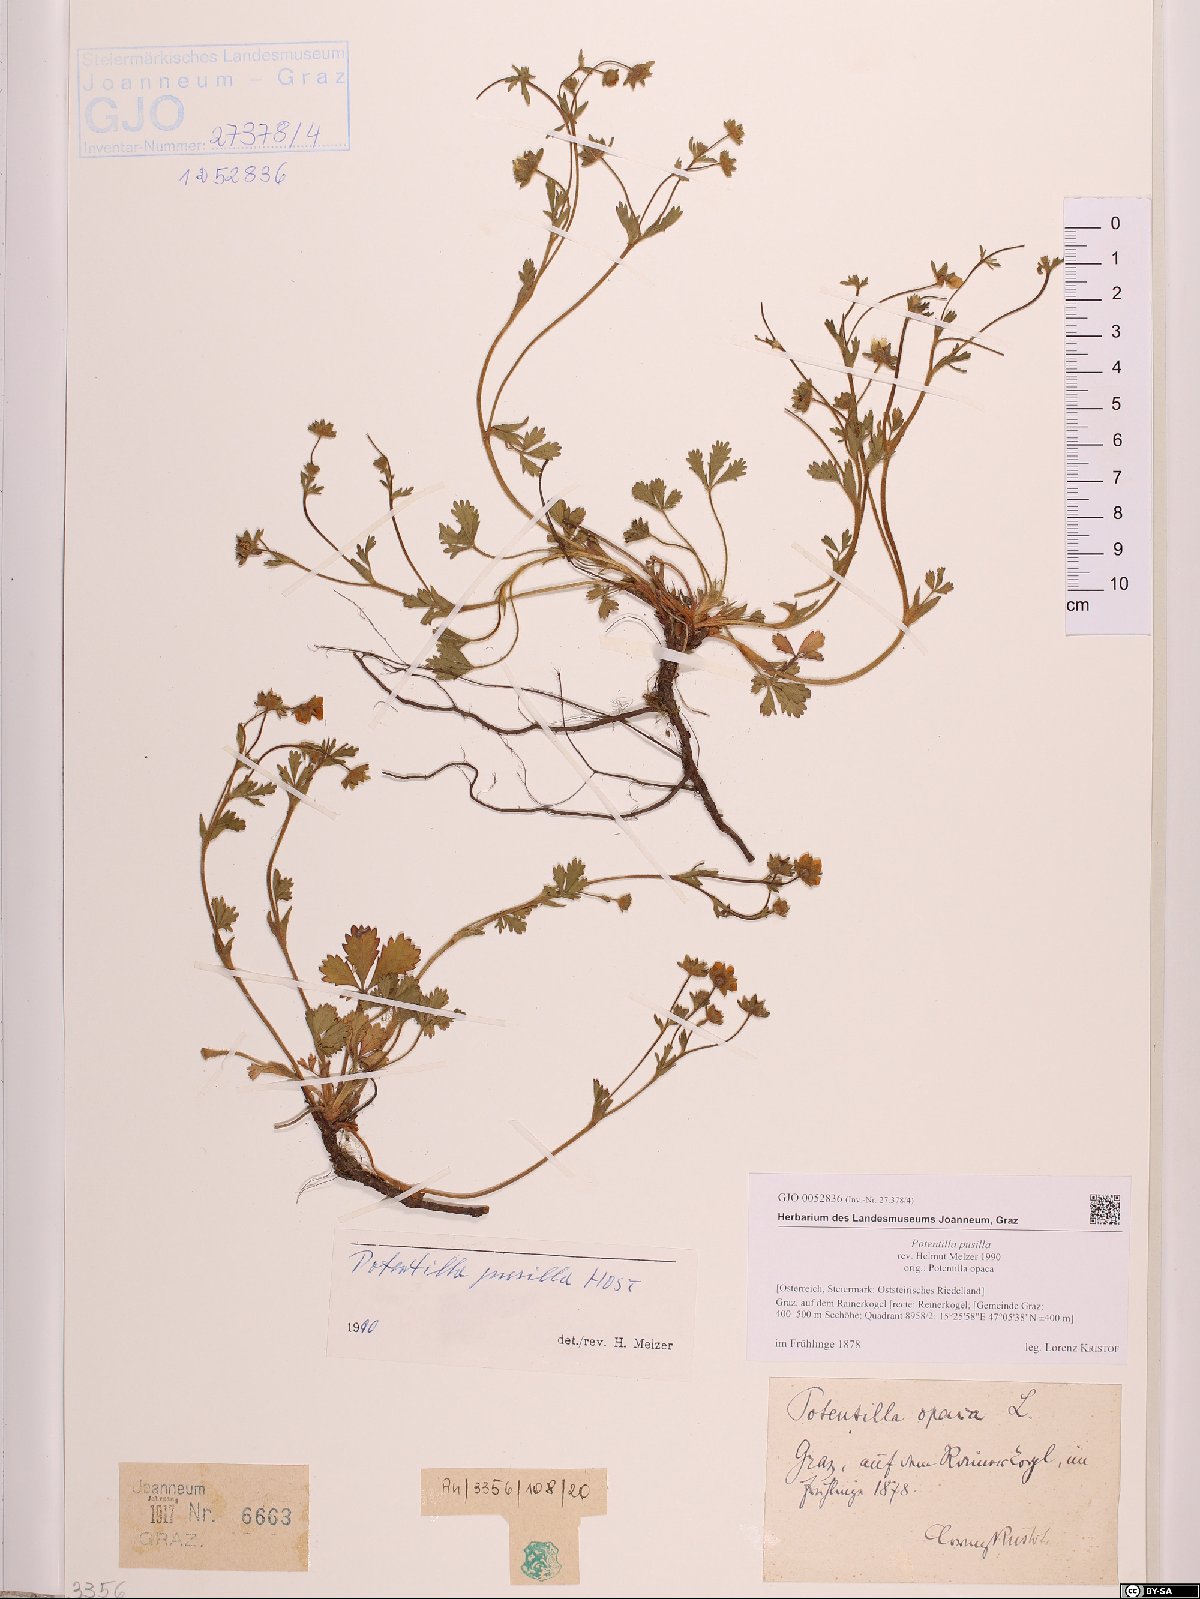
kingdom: Plantae
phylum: Tracheophyta
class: Magnoliopsida
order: Rosales
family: Rosaceae
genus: Potentilla
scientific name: Potentilla pusilla
